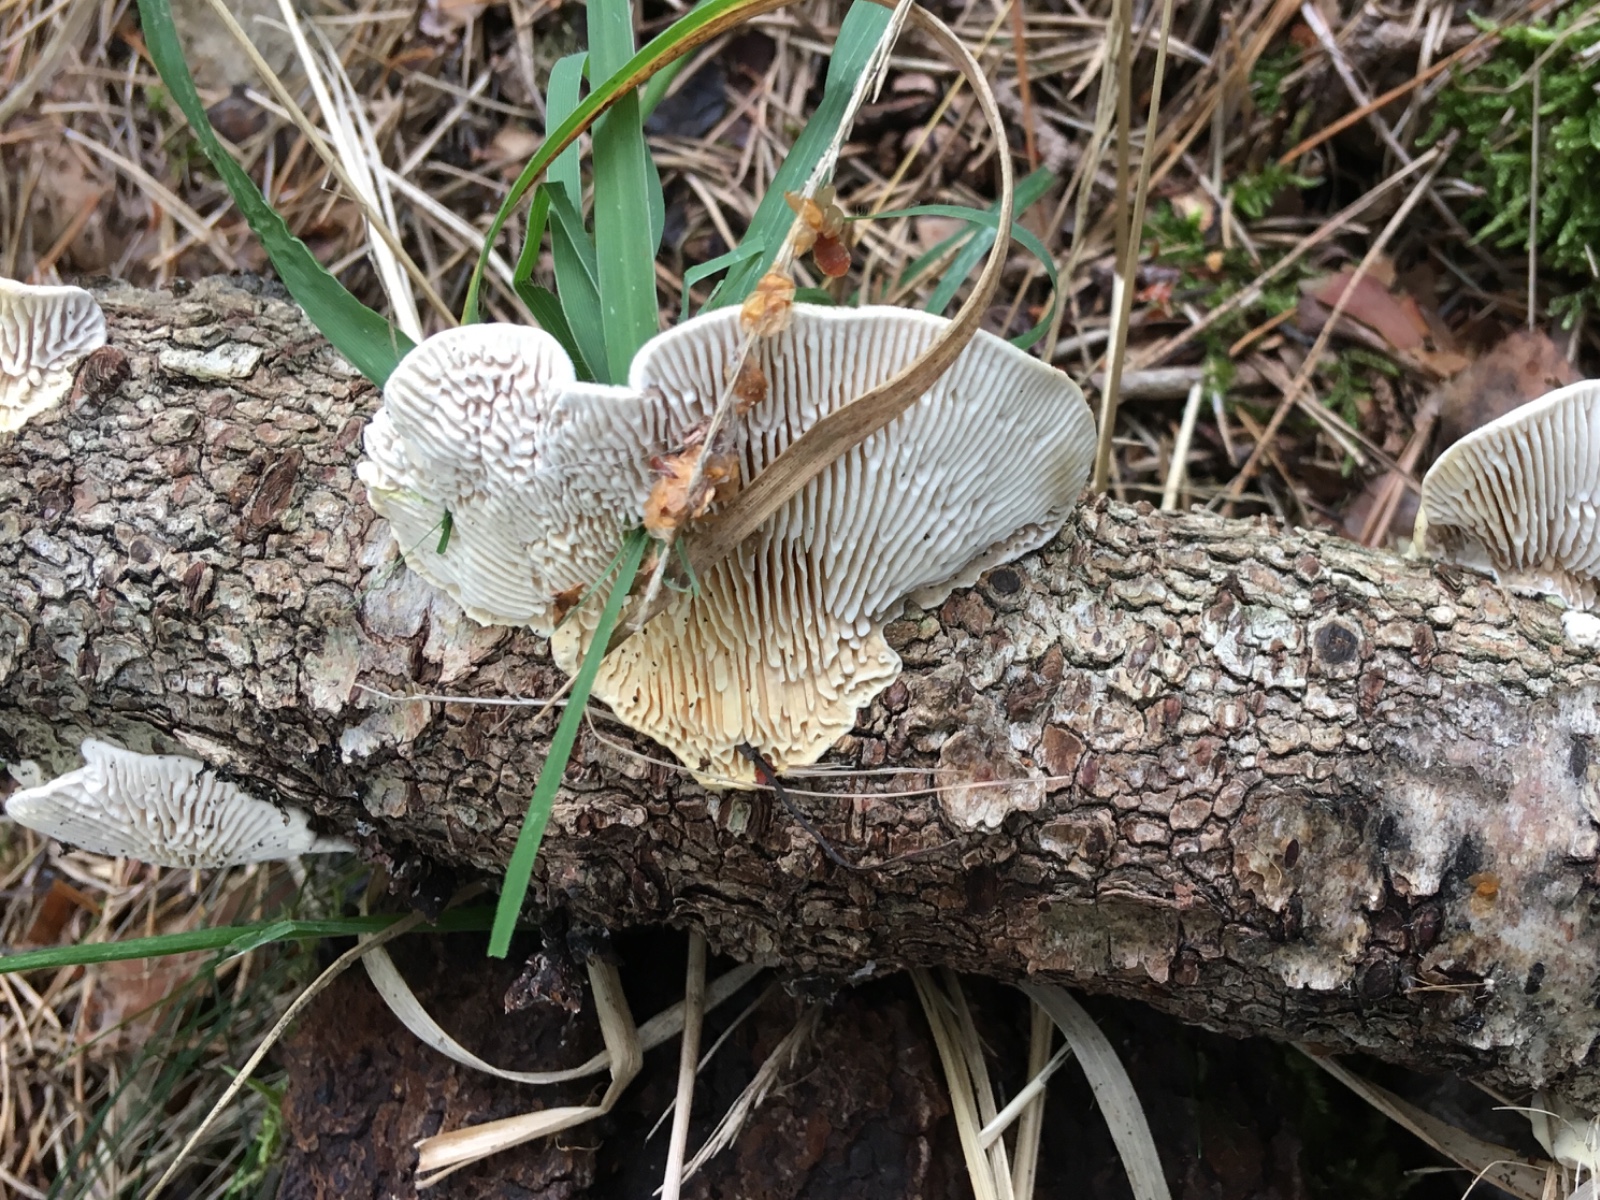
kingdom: Fungi
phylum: Basidiomycota
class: Agaricomycetes
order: Polyporales
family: Polyporaceae
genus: Lenzites
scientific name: Lenzites betulinus
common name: birke-læderporesvamp
